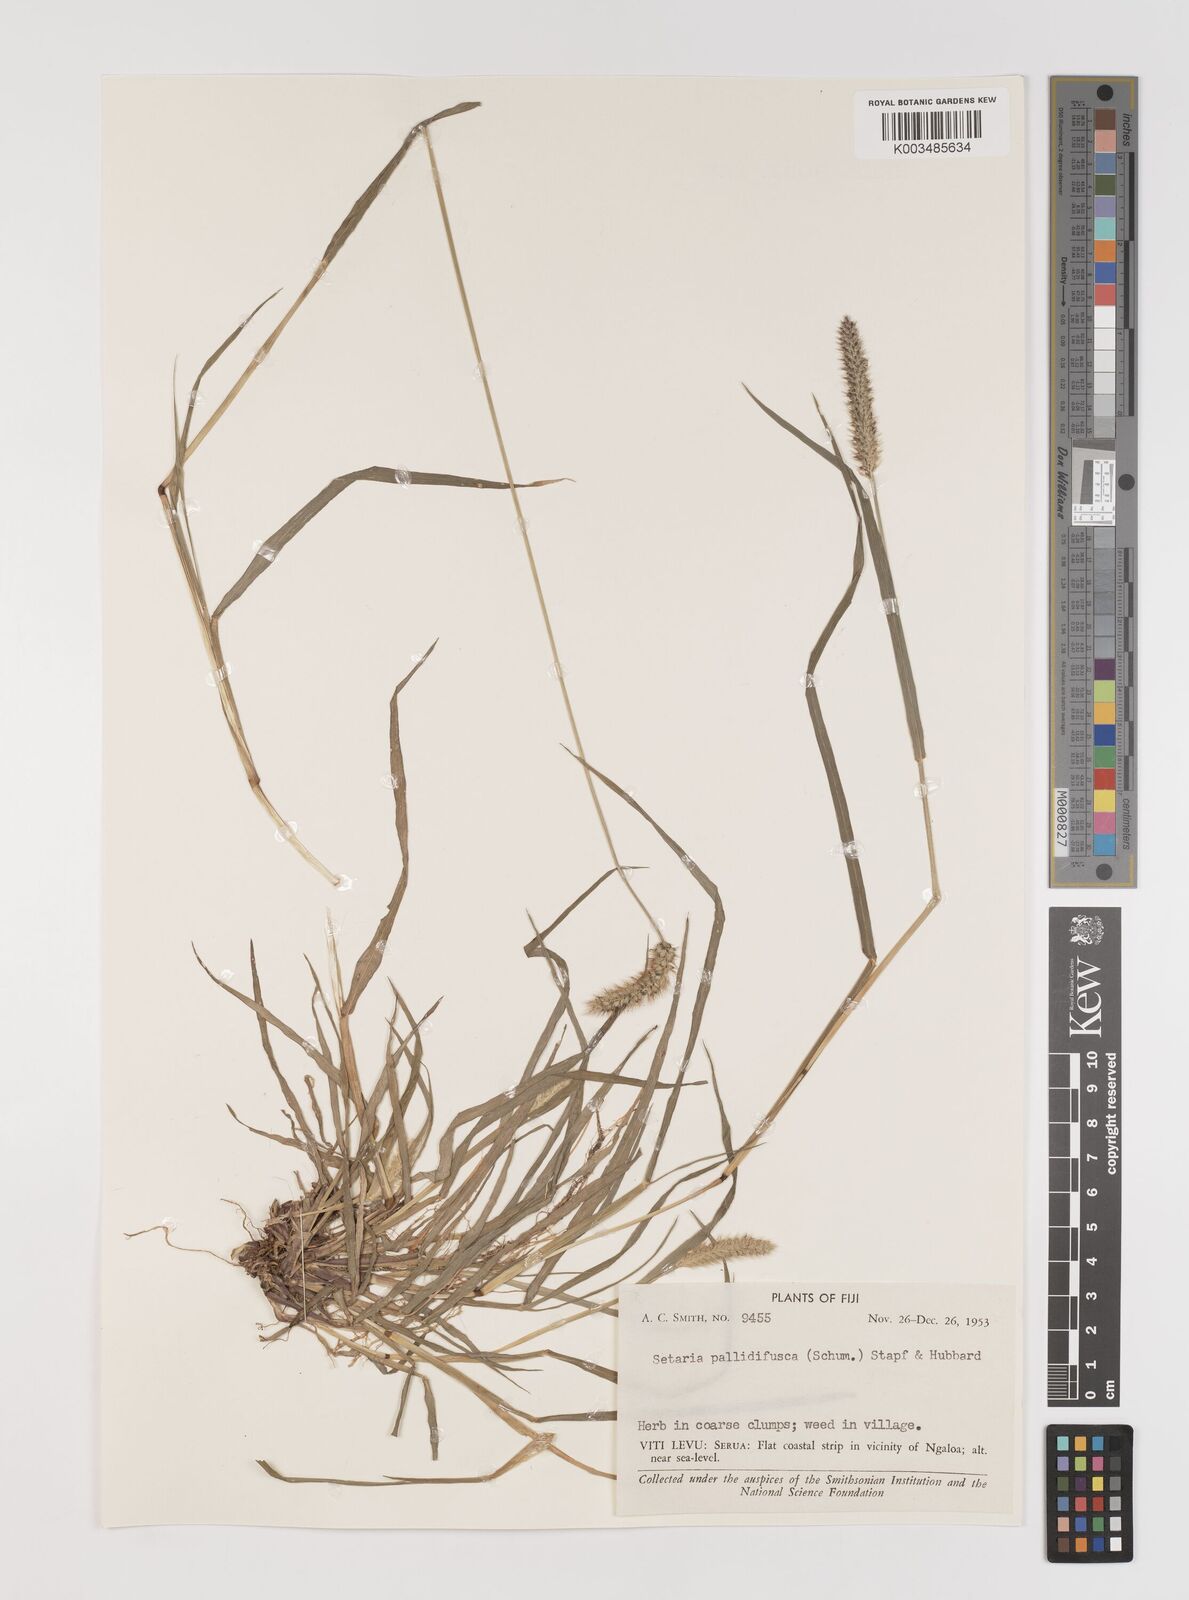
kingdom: Plantae
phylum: Tracheophyta
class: Liliopsida
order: Poales
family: Poaceae
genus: Setaria
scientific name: Setaria pumila
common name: Yellow bristle-grass
